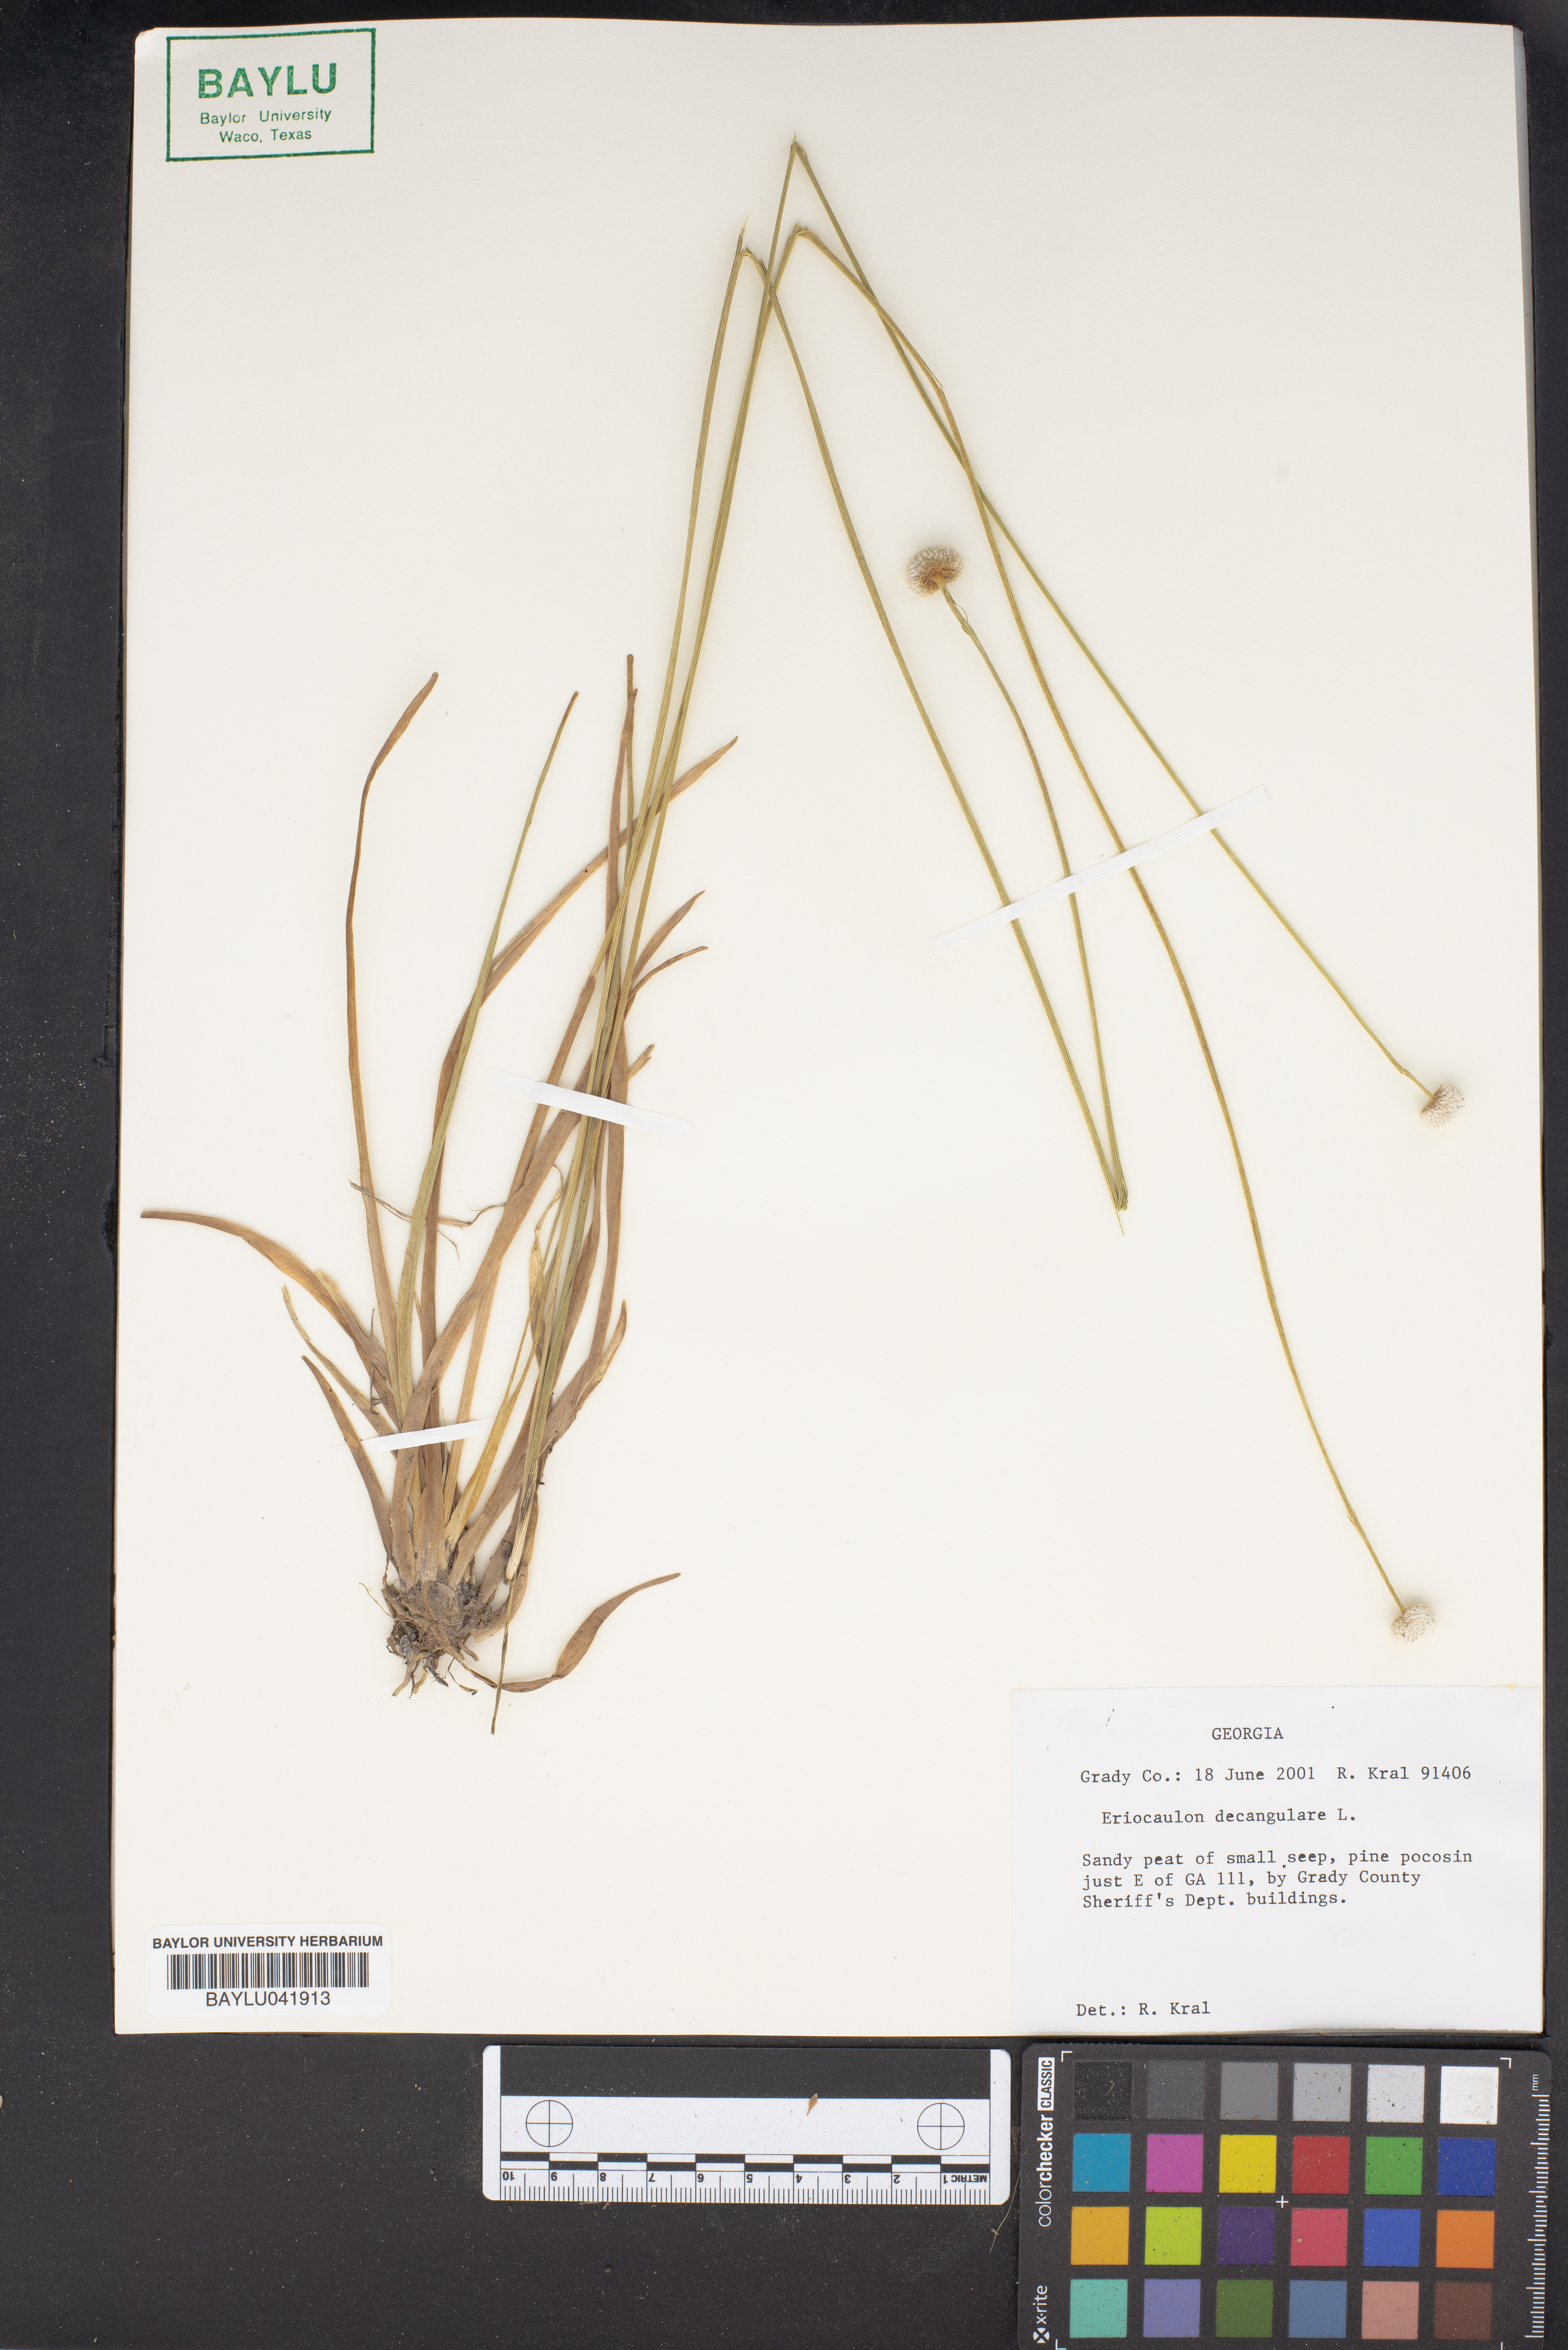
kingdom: Plantae
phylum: Tracheophyta
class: Liliopsida
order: Poales
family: Eriocaulaceae
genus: Eriocaulon
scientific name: Eriocaulon decangulare
